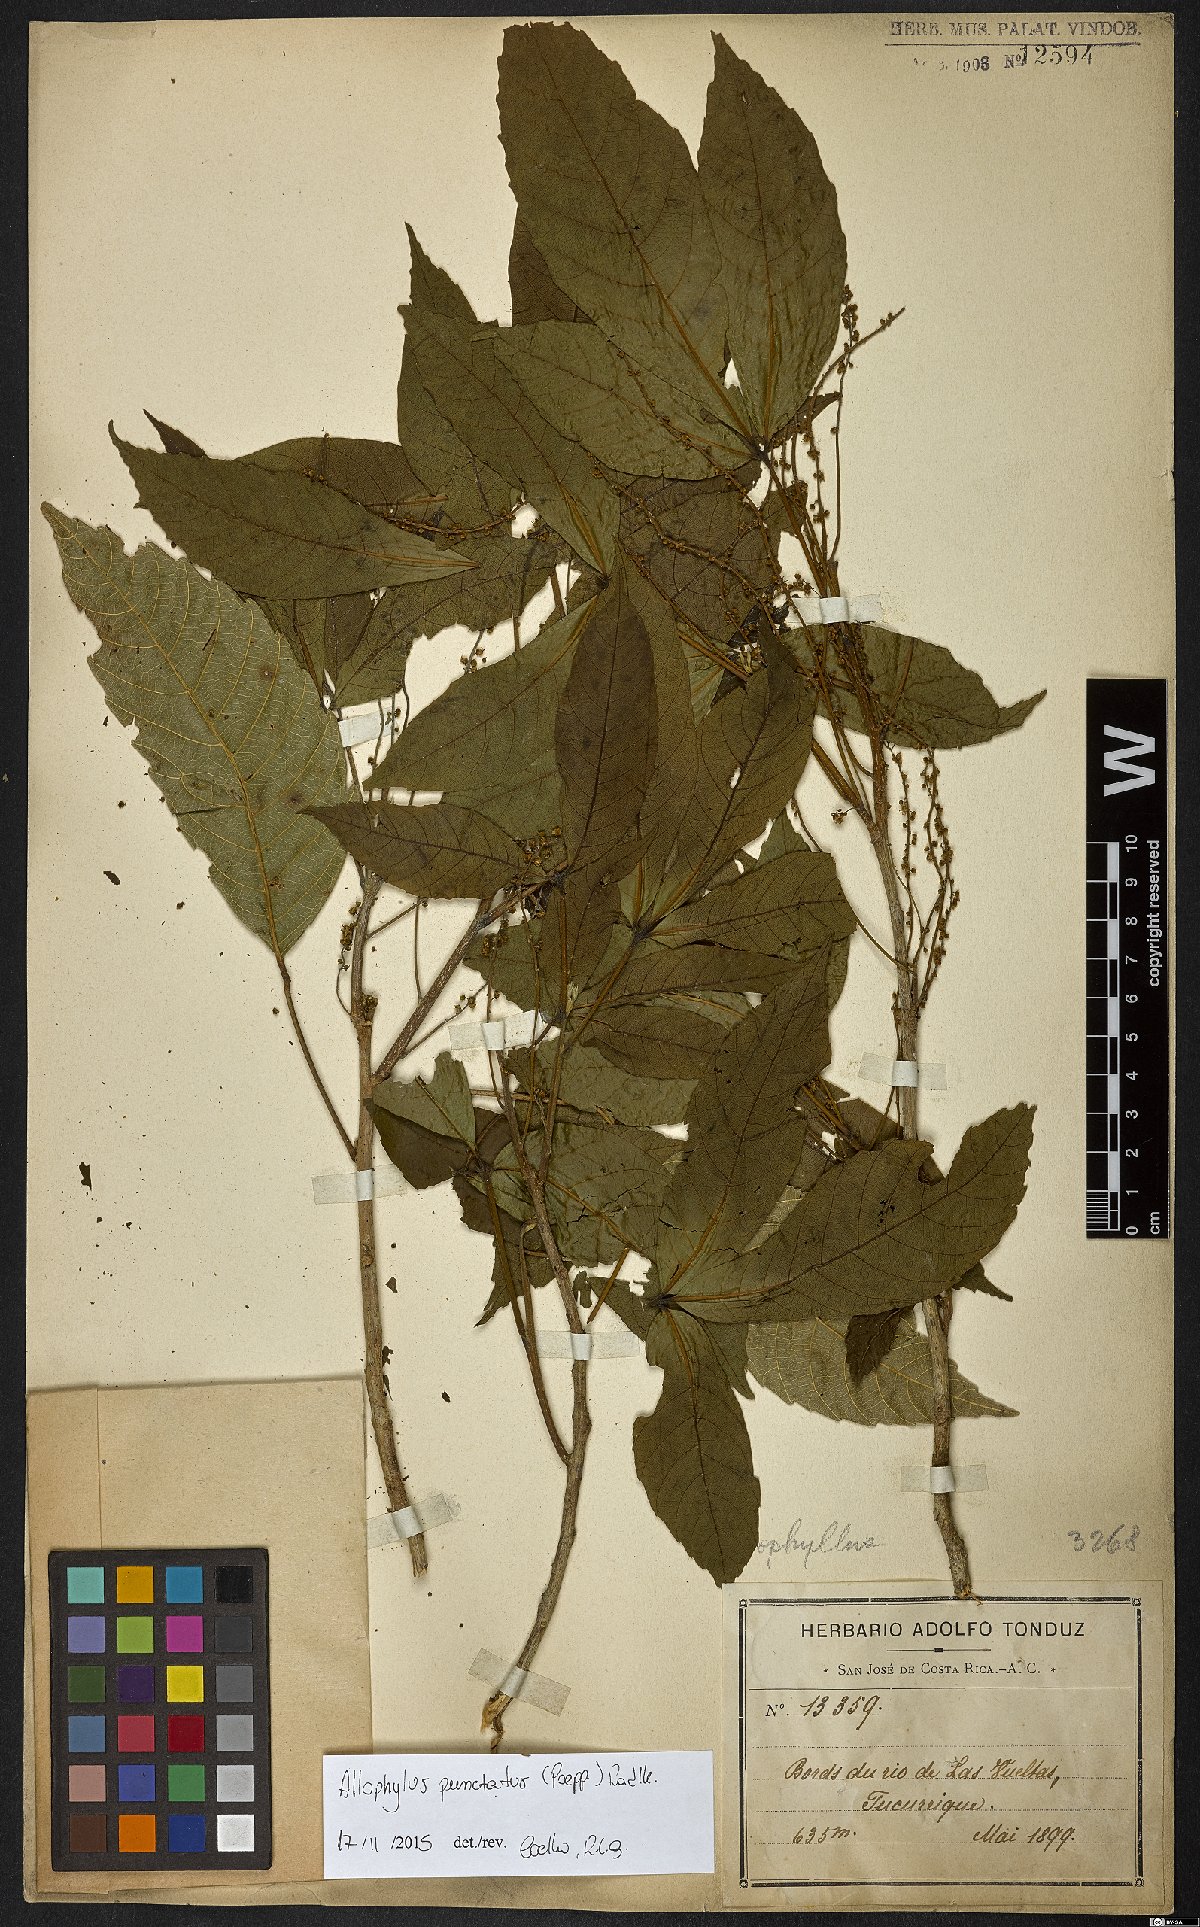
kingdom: Plantae
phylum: Tracheophyta
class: Magnoliopsida
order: Sapindales
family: Sapindaceae
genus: Allophylus
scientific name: Allophylus punctatus
